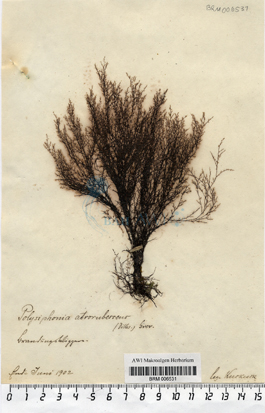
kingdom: Plantae
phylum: Rhodophyta
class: Florideophyceae
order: Ceramiales
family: Rhodomelaceae
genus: Vertebrata
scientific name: Vertebrata nigra
